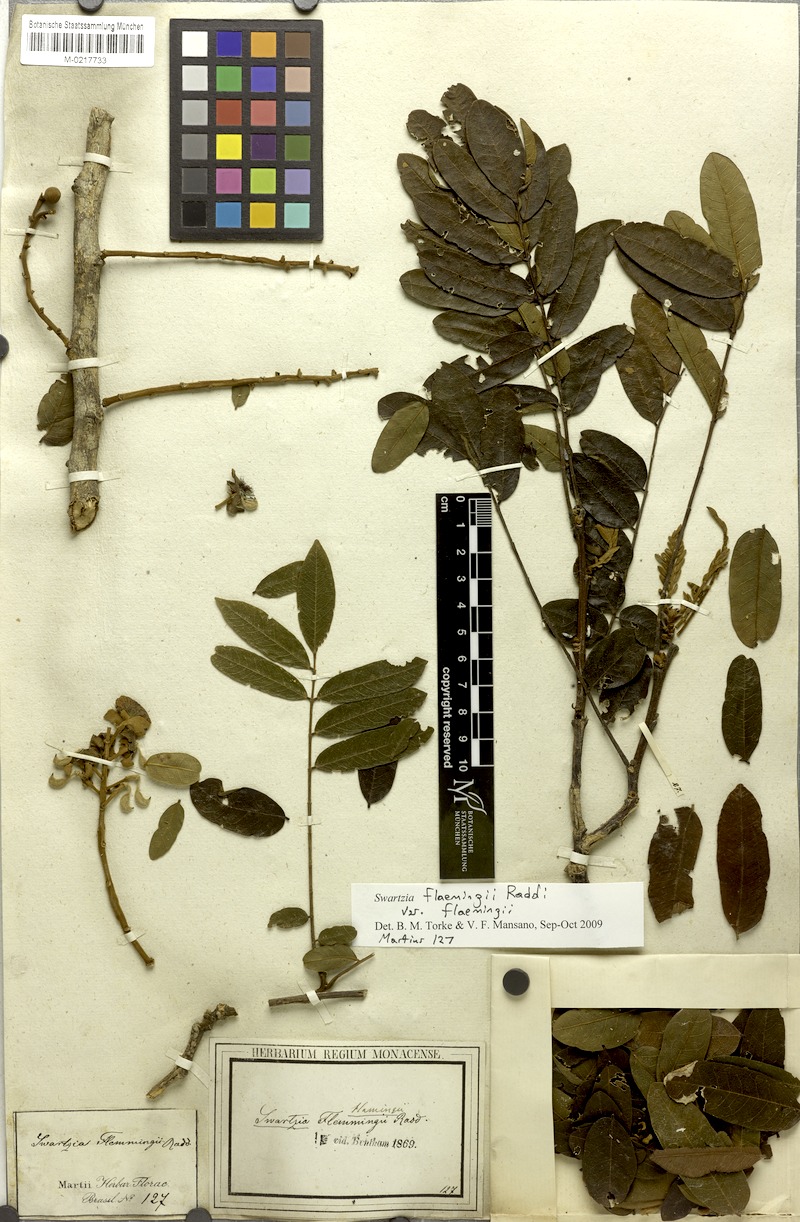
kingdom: Plantae
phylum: Tracheophyta
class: Magnoliopsida
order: Fabales
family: Fabaceae
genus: Swartzia
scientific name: Swartzia flemmingii
